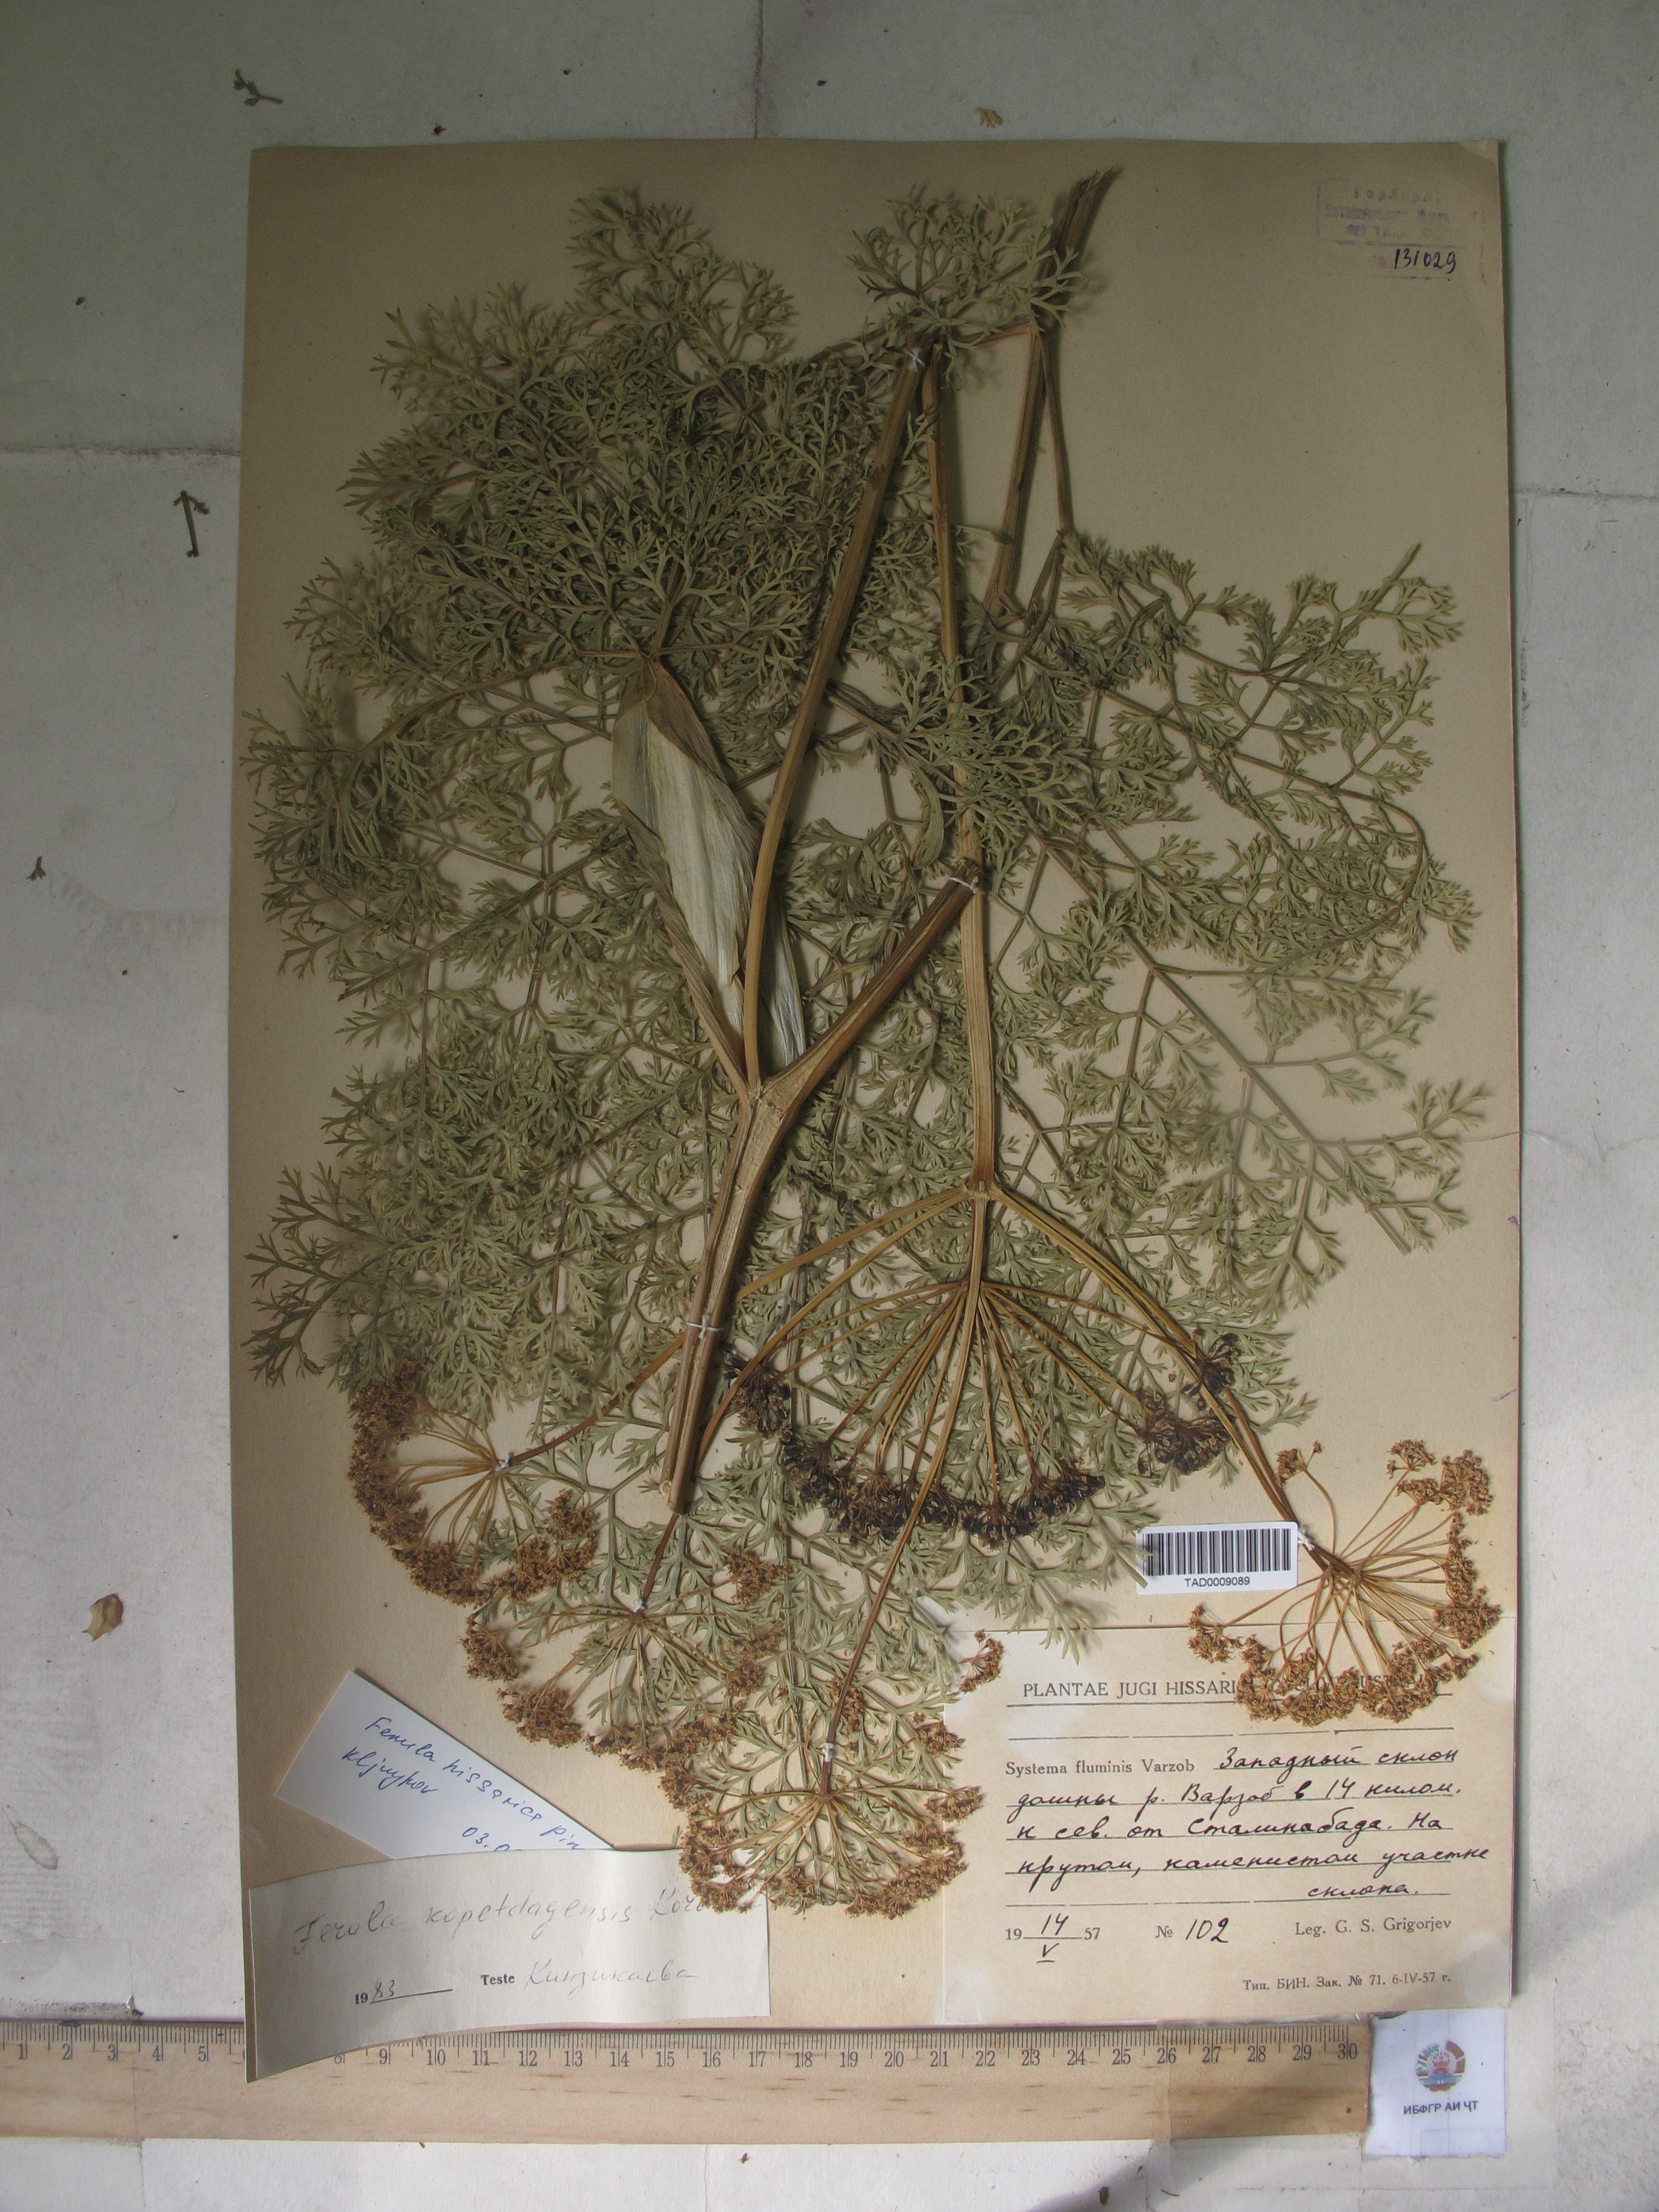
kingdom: Plantae
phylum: Tracheophyta
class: Magnoliopsida
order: Apiales
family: Apiaceae
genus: Ferula
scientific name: Ferula hissarica
